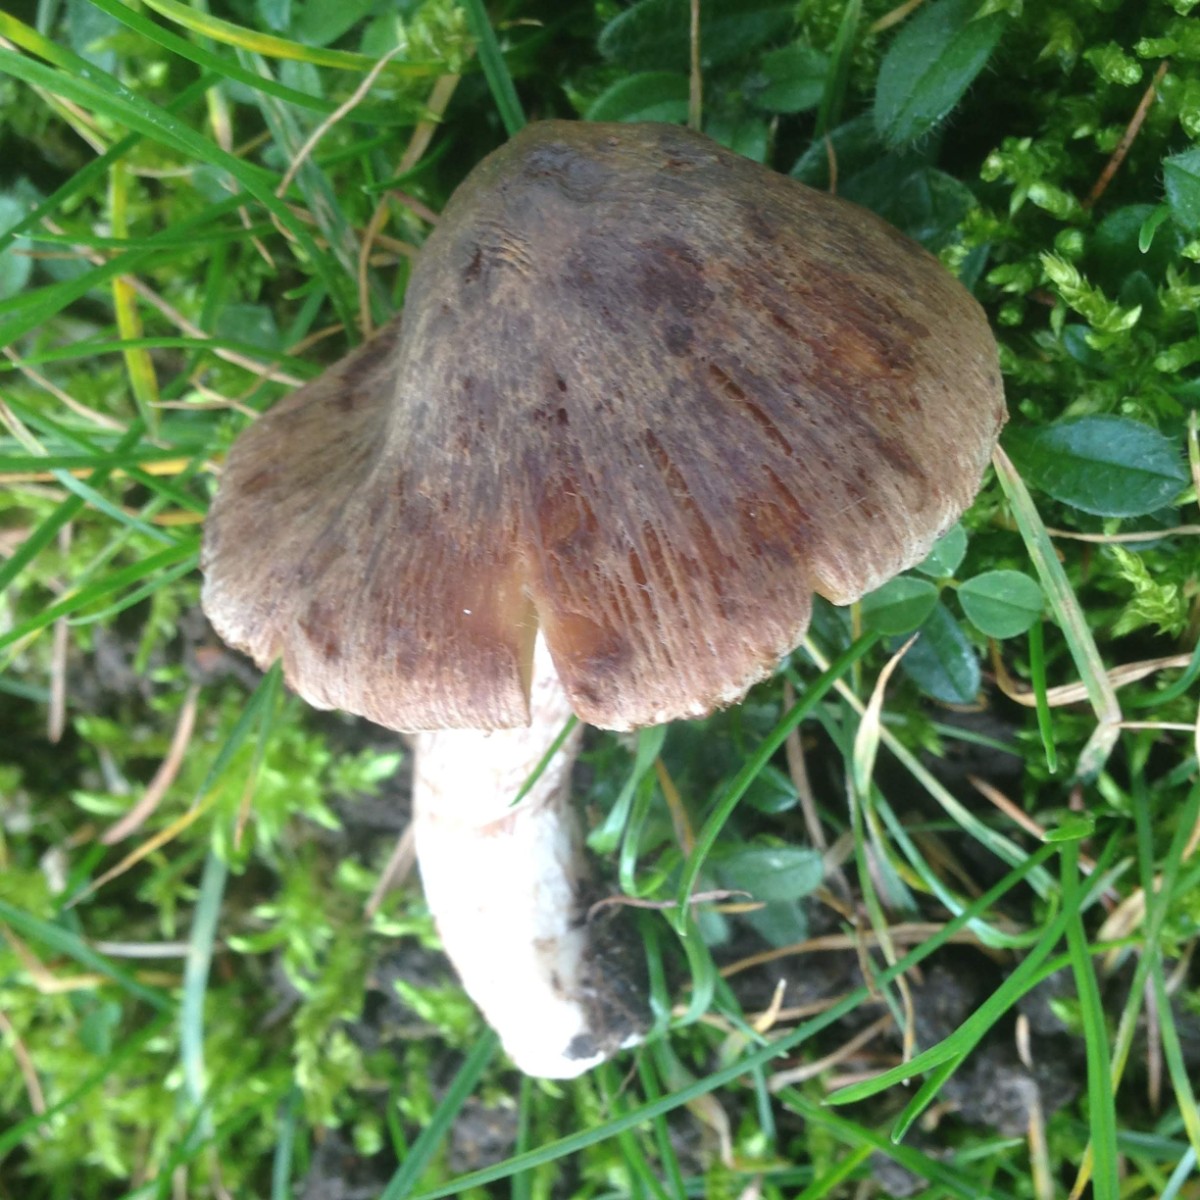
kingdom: Fungi
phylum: Basidiomycota
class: Agaricomycetes
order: Agaricales
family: Inocybaceae
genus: Inocybe
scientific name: Inocybe derbschii
